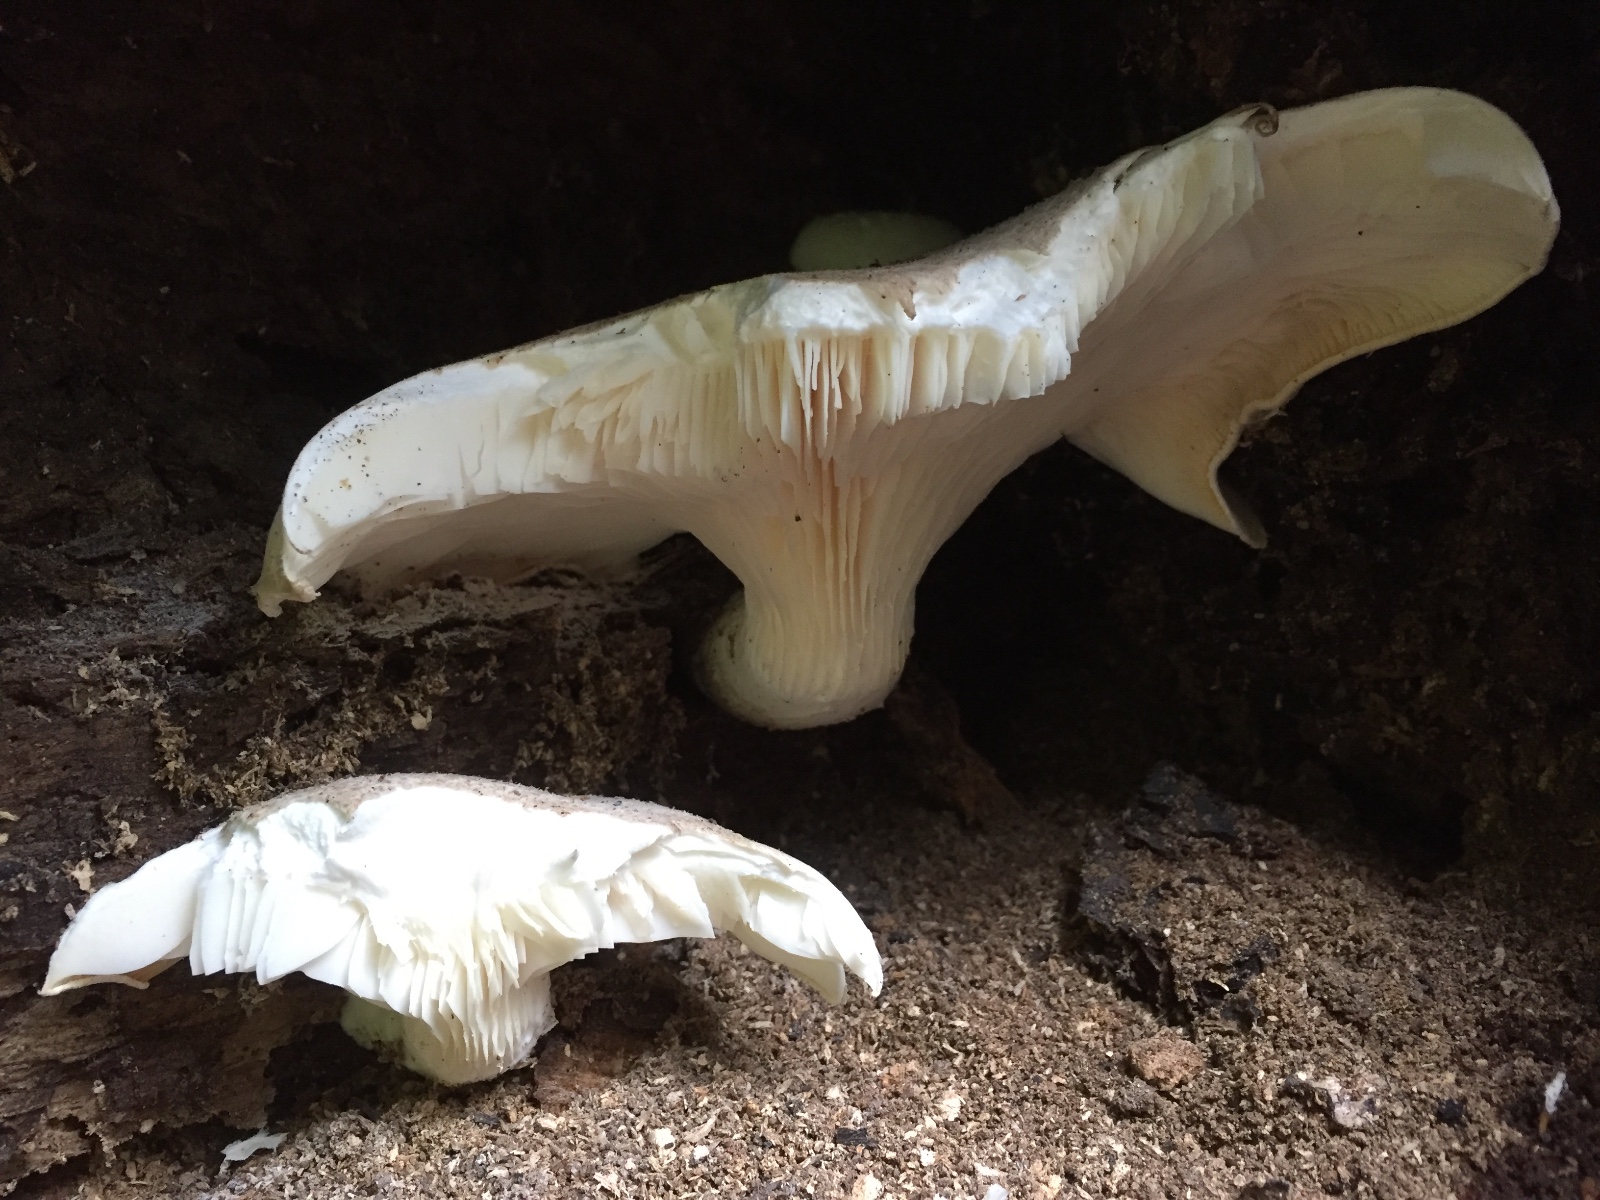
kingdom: Fungi
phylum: Basidiomycota
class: Agaricomycetes
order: Agaricales
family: Pleurotaceae
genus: Pleurotus
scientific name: Pleurotus dryinus
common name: korkagtig østershat
